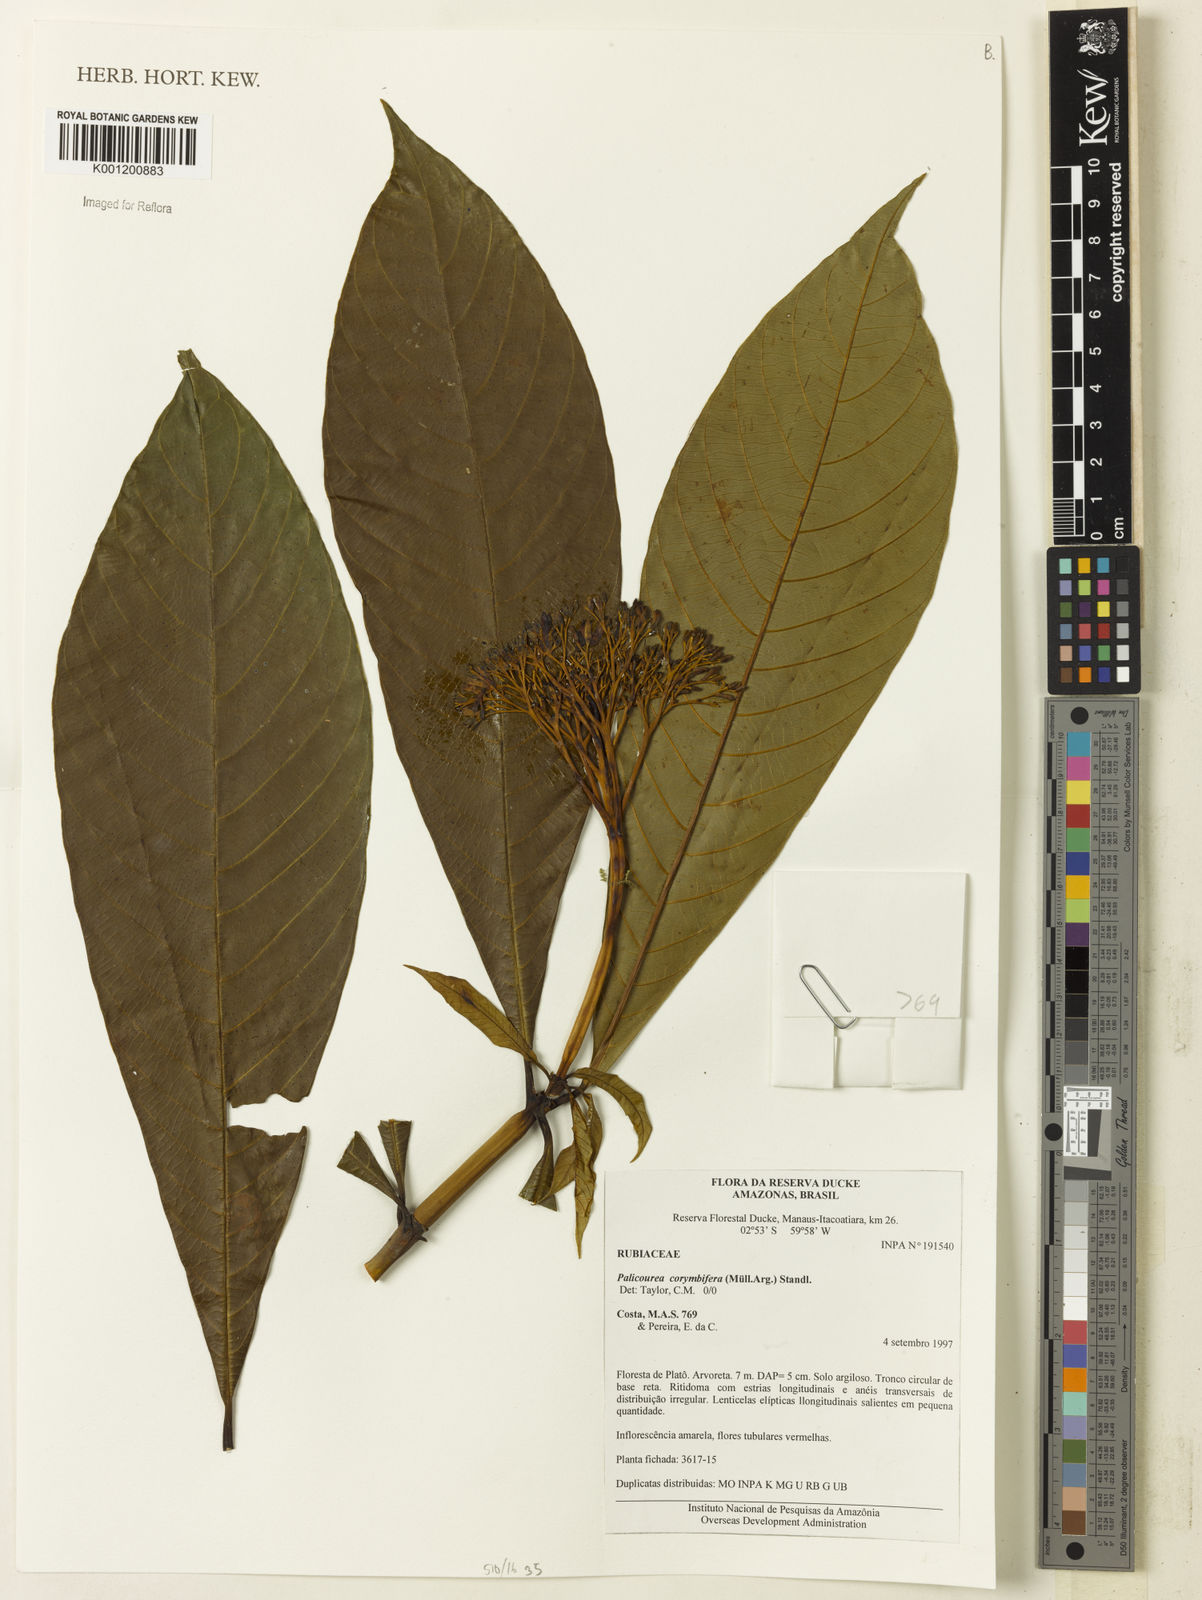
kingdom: Plantae
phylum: Tracheophyta
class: Magnoliopsida
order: Gentianales
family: Rubiaceae
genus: Palicourea
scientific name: Palicourea
